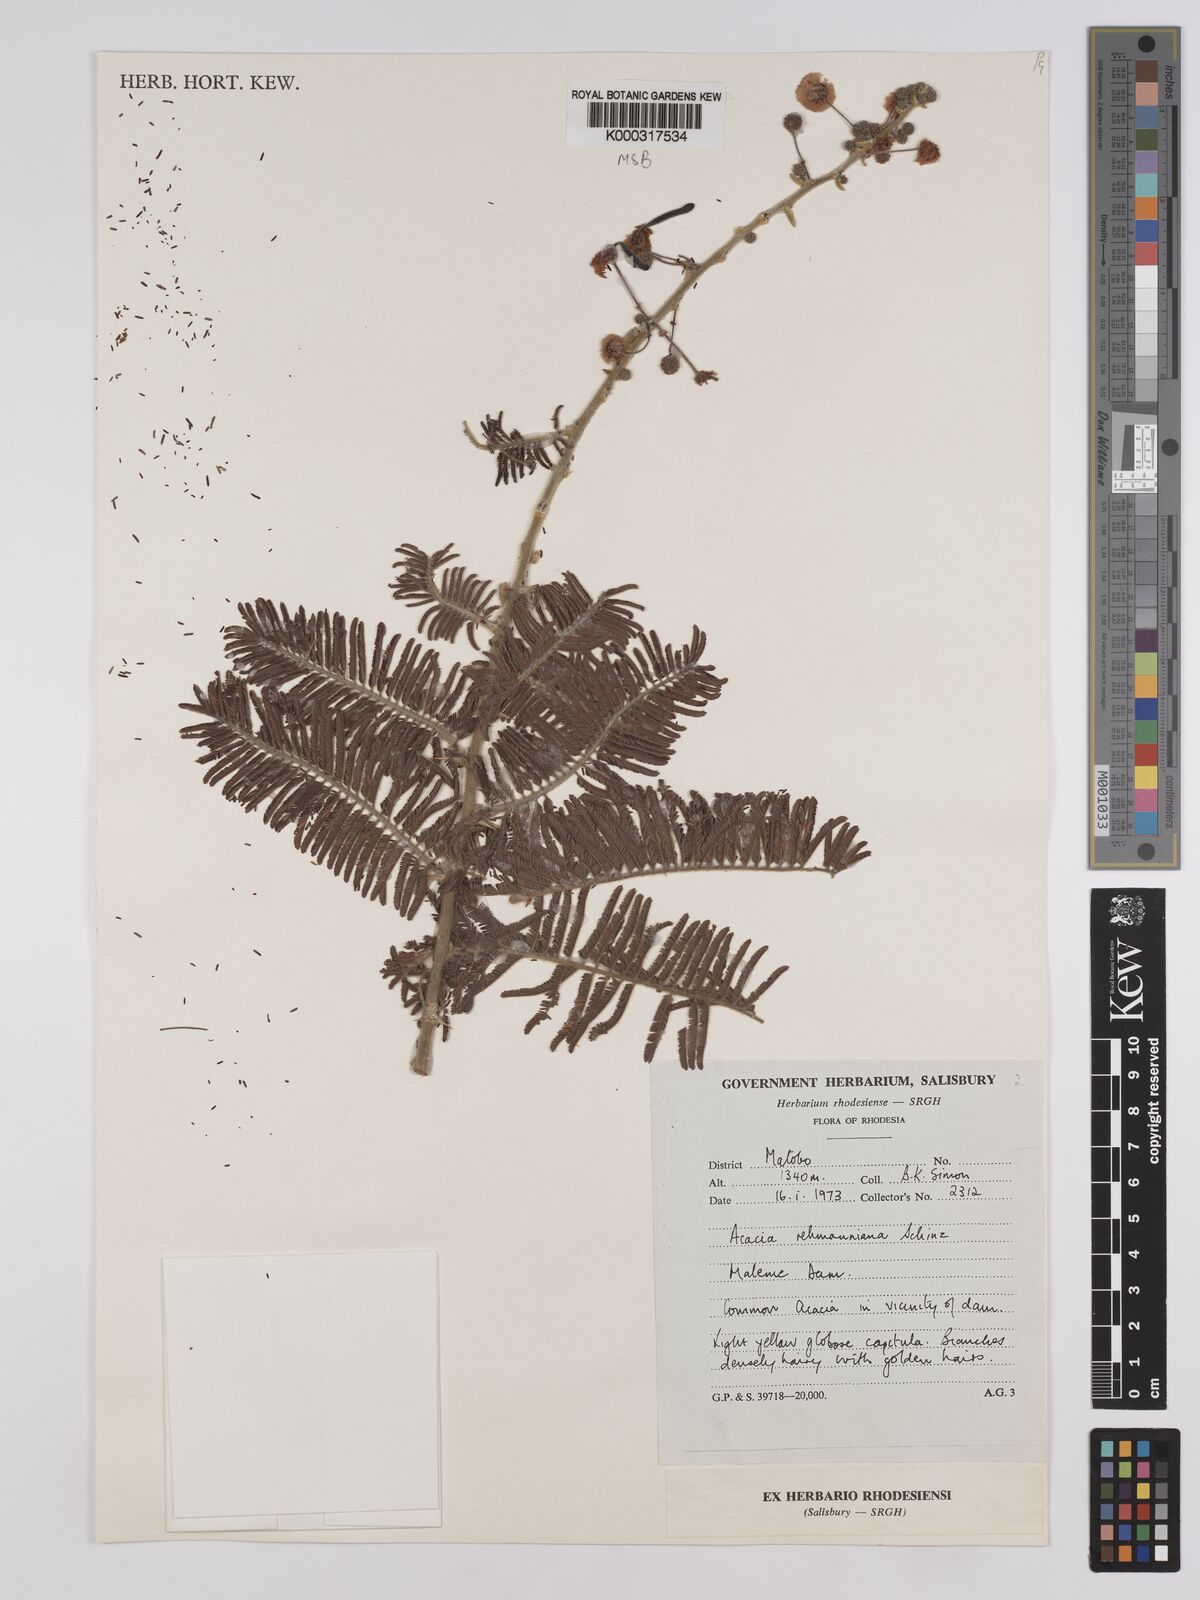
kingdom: Plantae
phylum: Tracheophyta
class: Magnoliopsida
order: Fabales
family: Fabaceae
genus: Vachellia
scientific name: Vachellia rehmanniana
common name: Silky thorn
